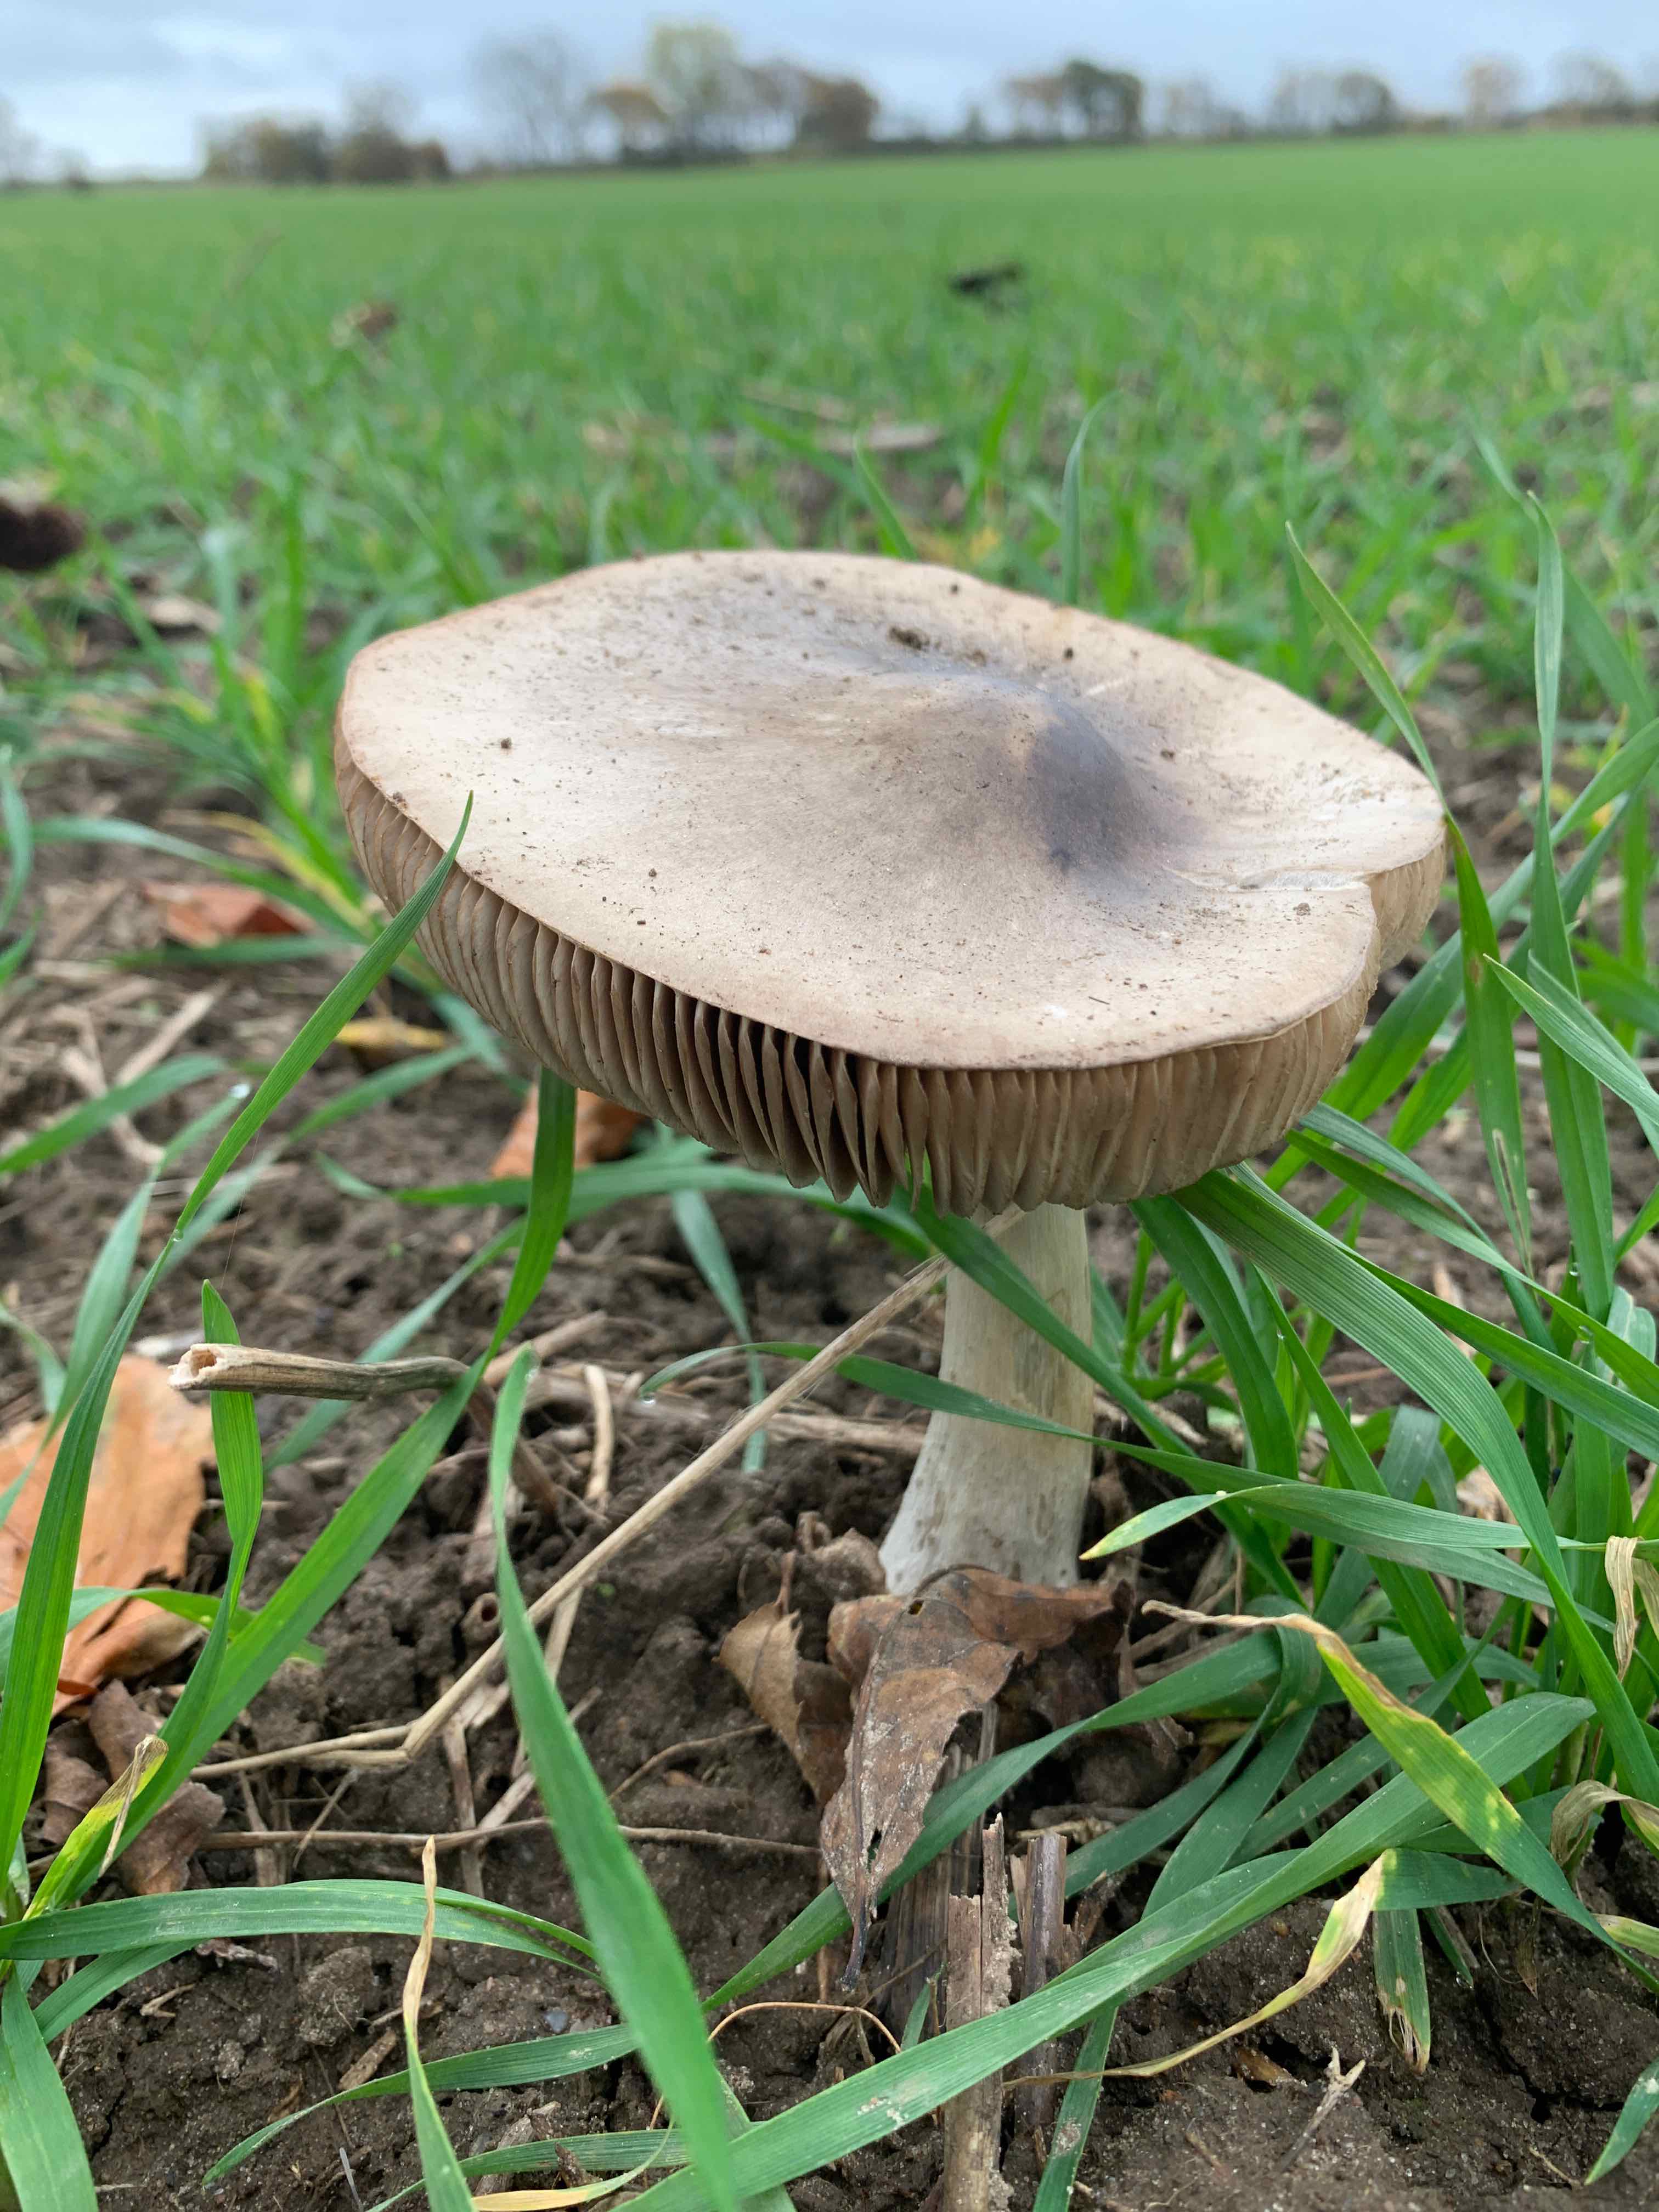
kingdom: Fungi
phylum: Basidiomycota
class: Agaricomycetes
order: Agaricales
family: Pluteaceae
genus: Volvopluteus
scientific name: Volvopluteus gloiocephalus
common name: høj posesvamp
